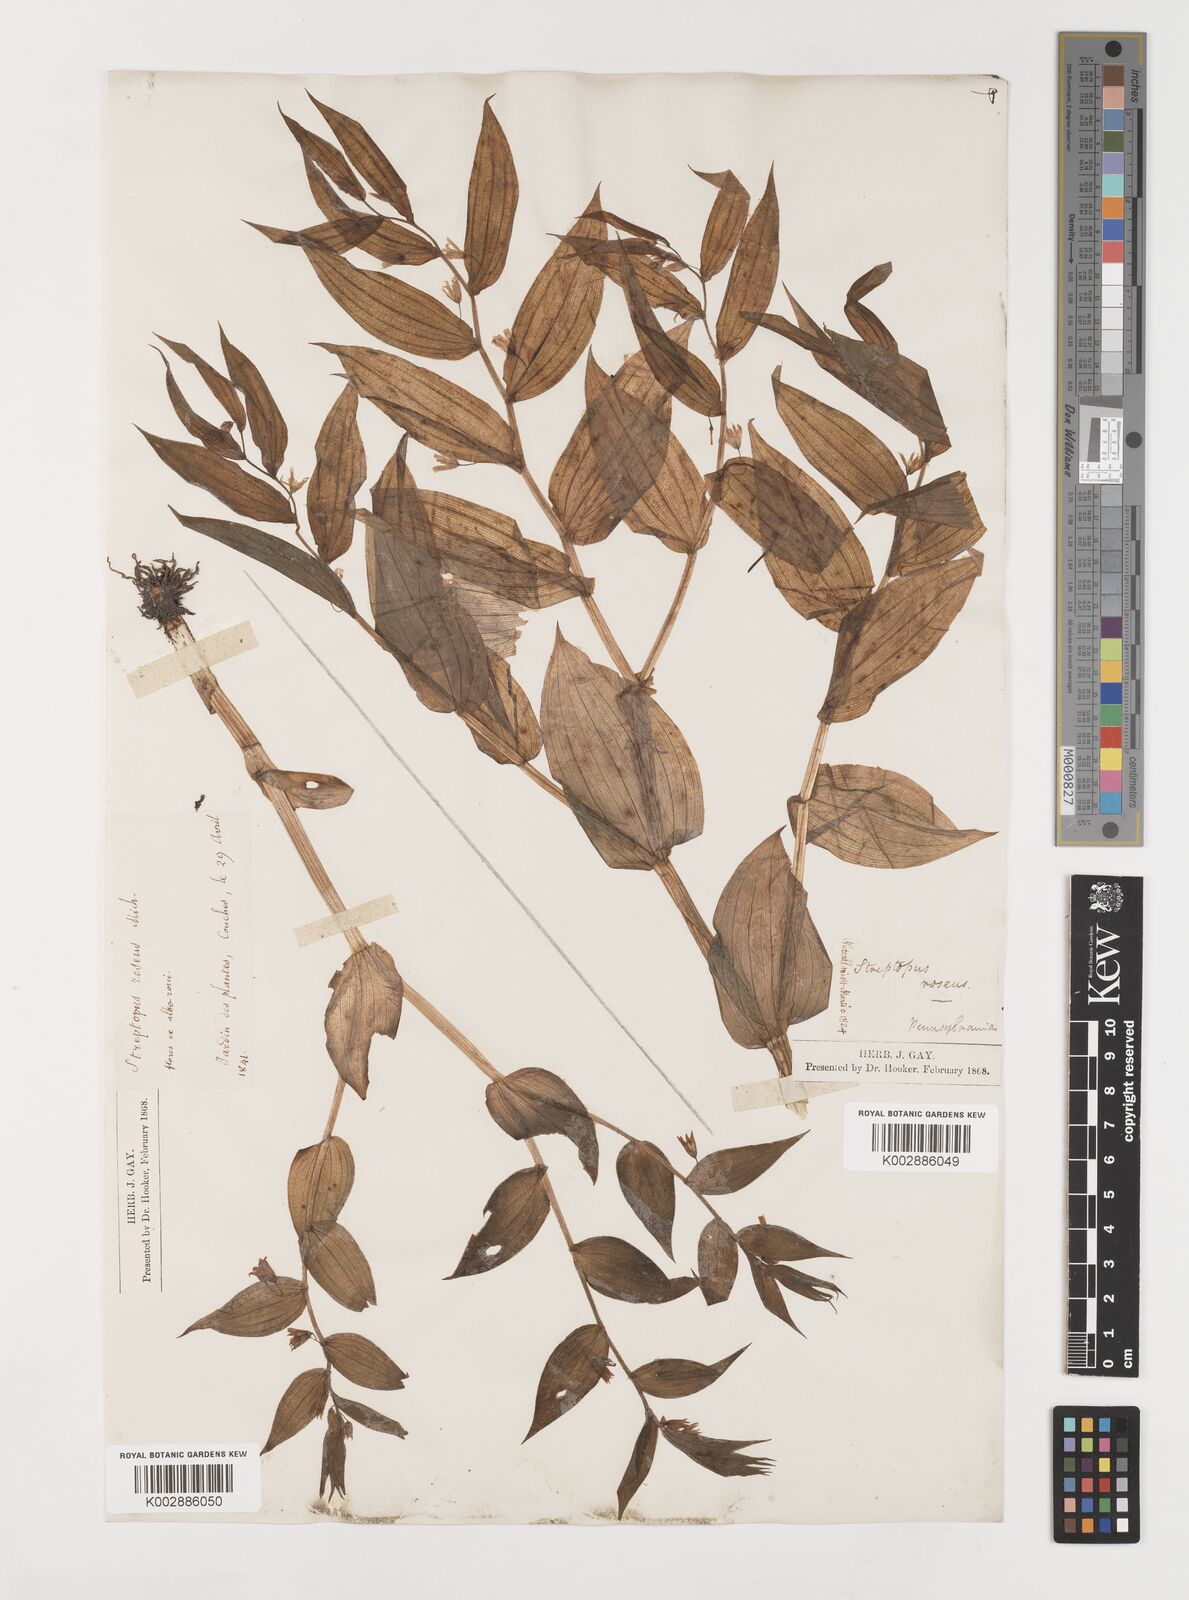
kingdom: Plantae
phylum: Tracheophyta
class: Liliopsida
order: Liliales
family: Liliaceae
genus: Streptopus
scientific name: Streptopus lanceolatus
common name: Rose mandarin
